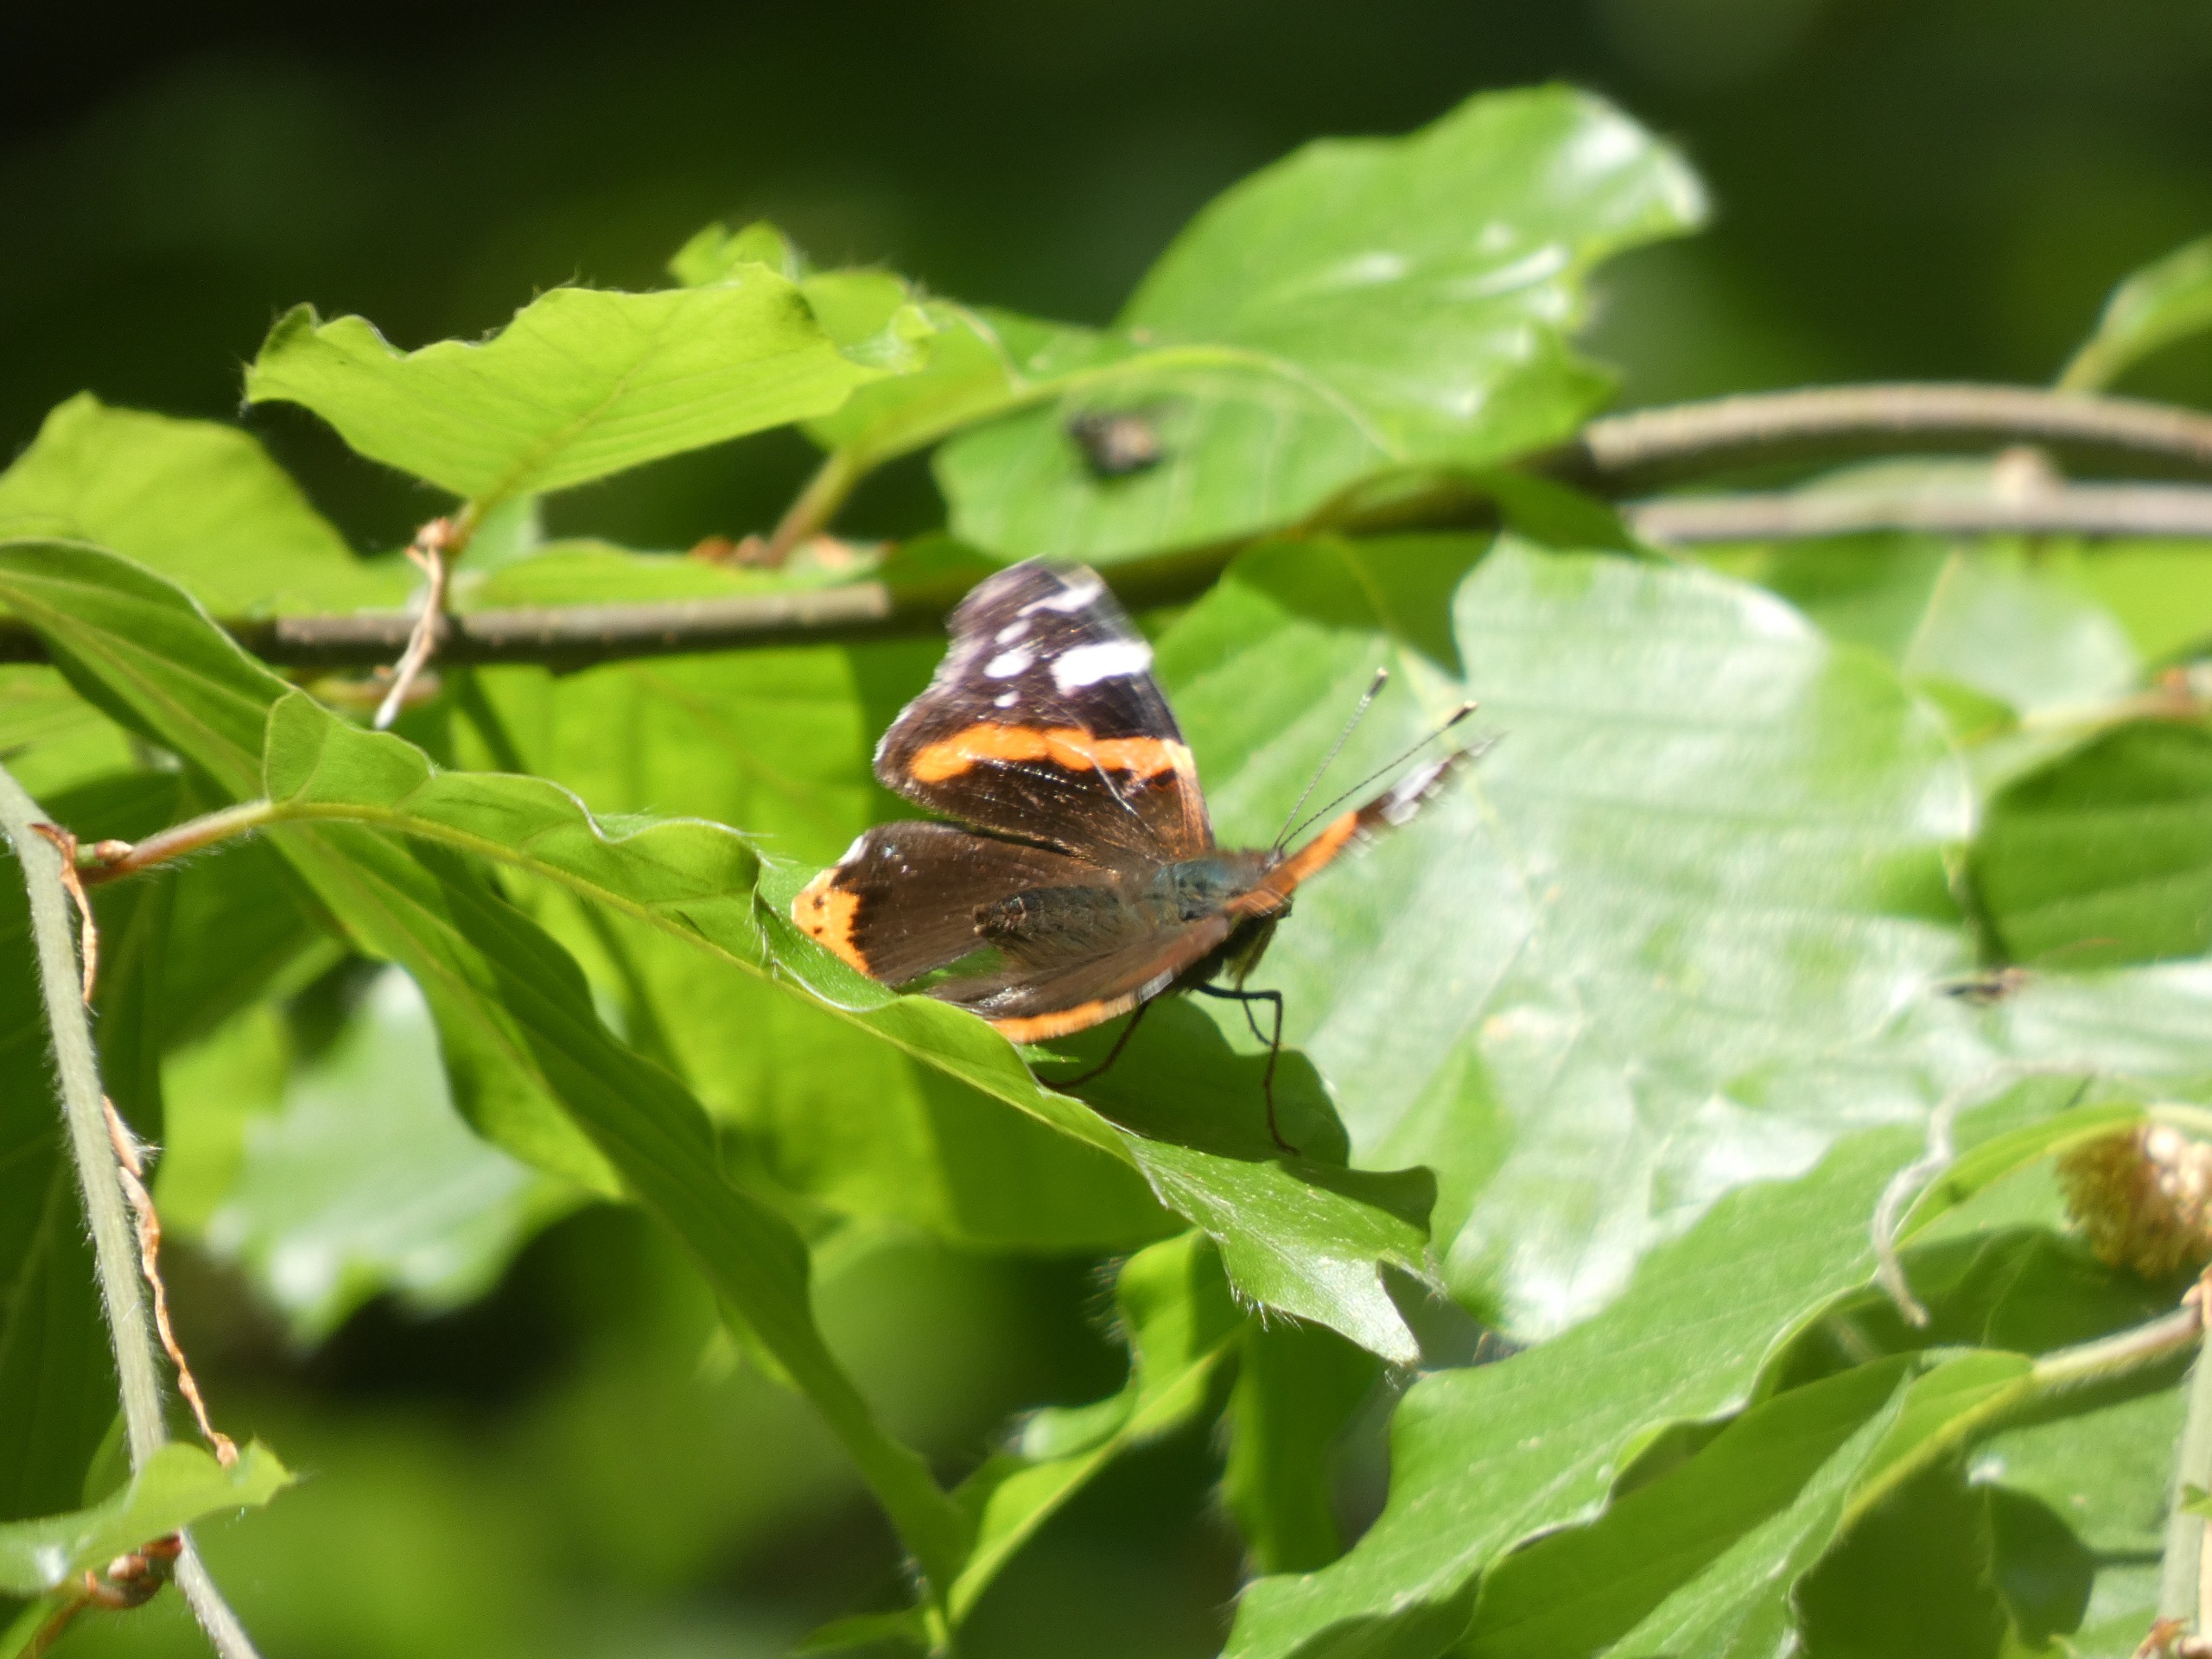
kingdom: Animalia
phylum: Arthropoda
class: Insecta
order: Lepidoptera
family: Nymphalidae
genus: Vanessa
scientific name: Vanessa atalanta
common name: Admiral
